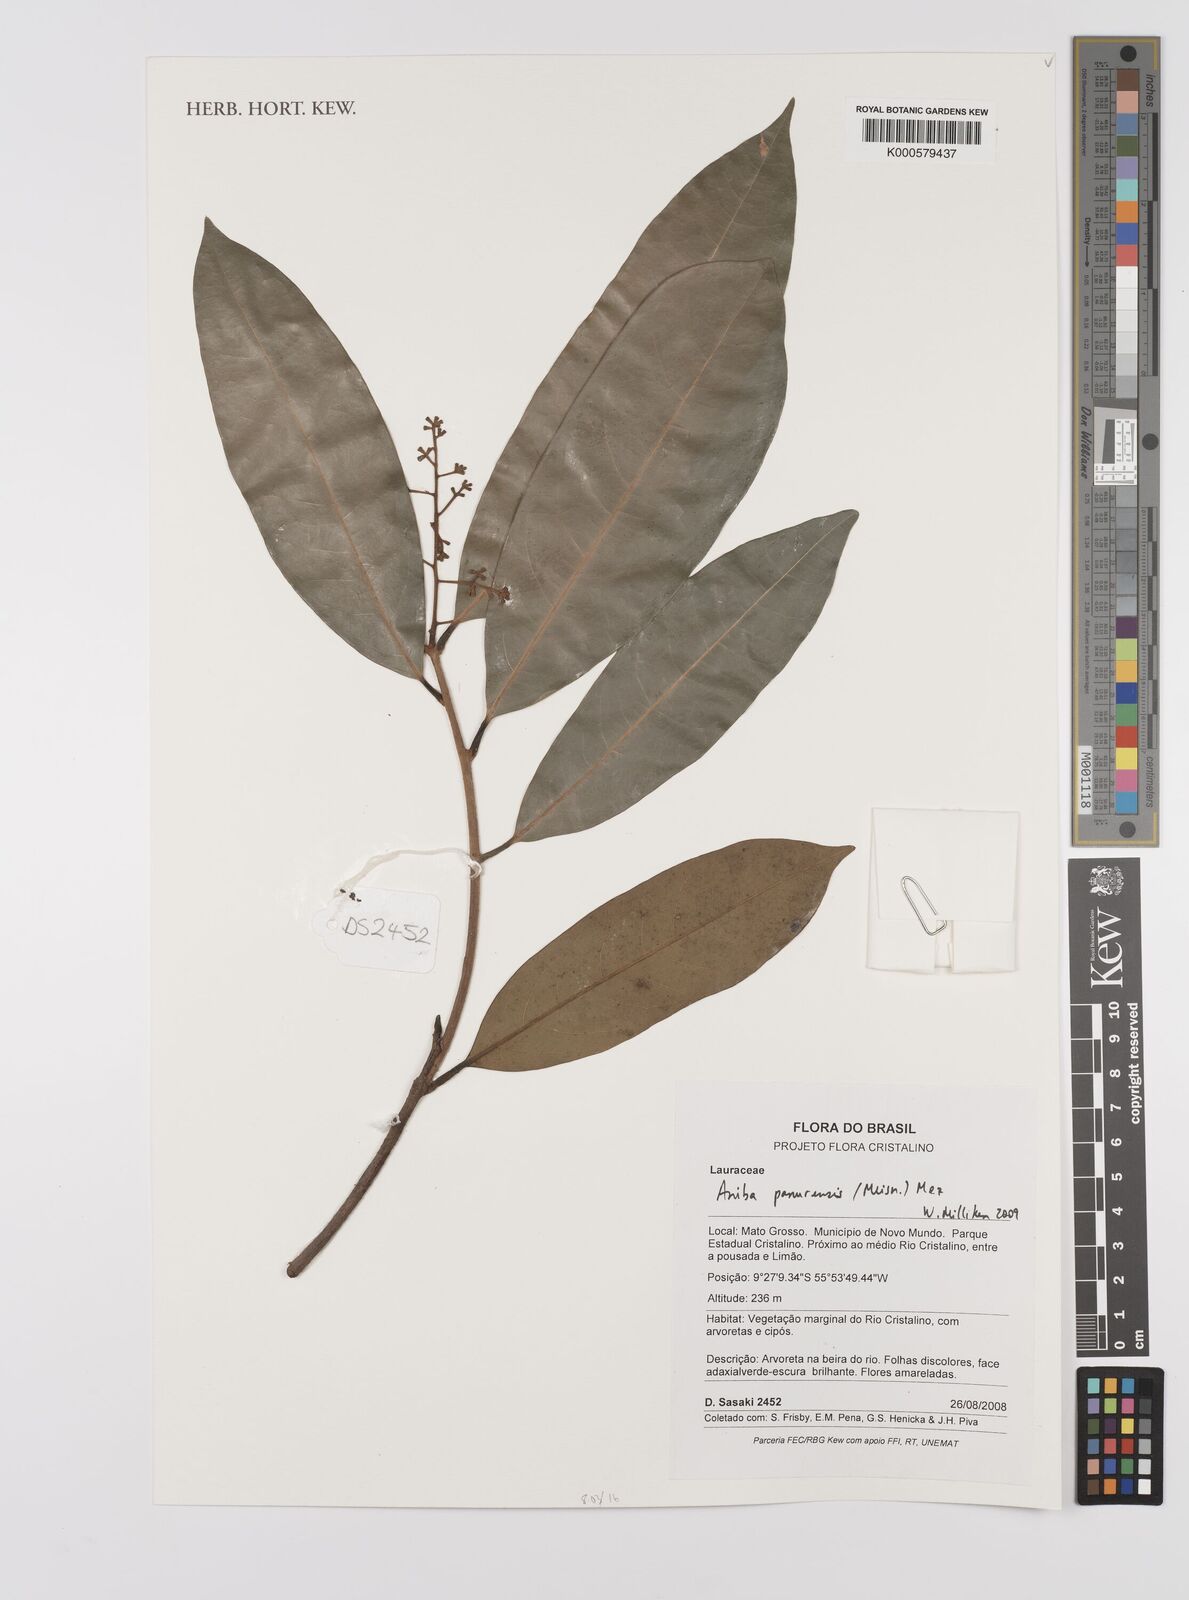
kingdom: Plantae
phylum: Tracheophyta
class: Magnoliopsida
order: Laurales
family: Lauraceae
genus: Aniba
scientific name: Aniba panurensis
